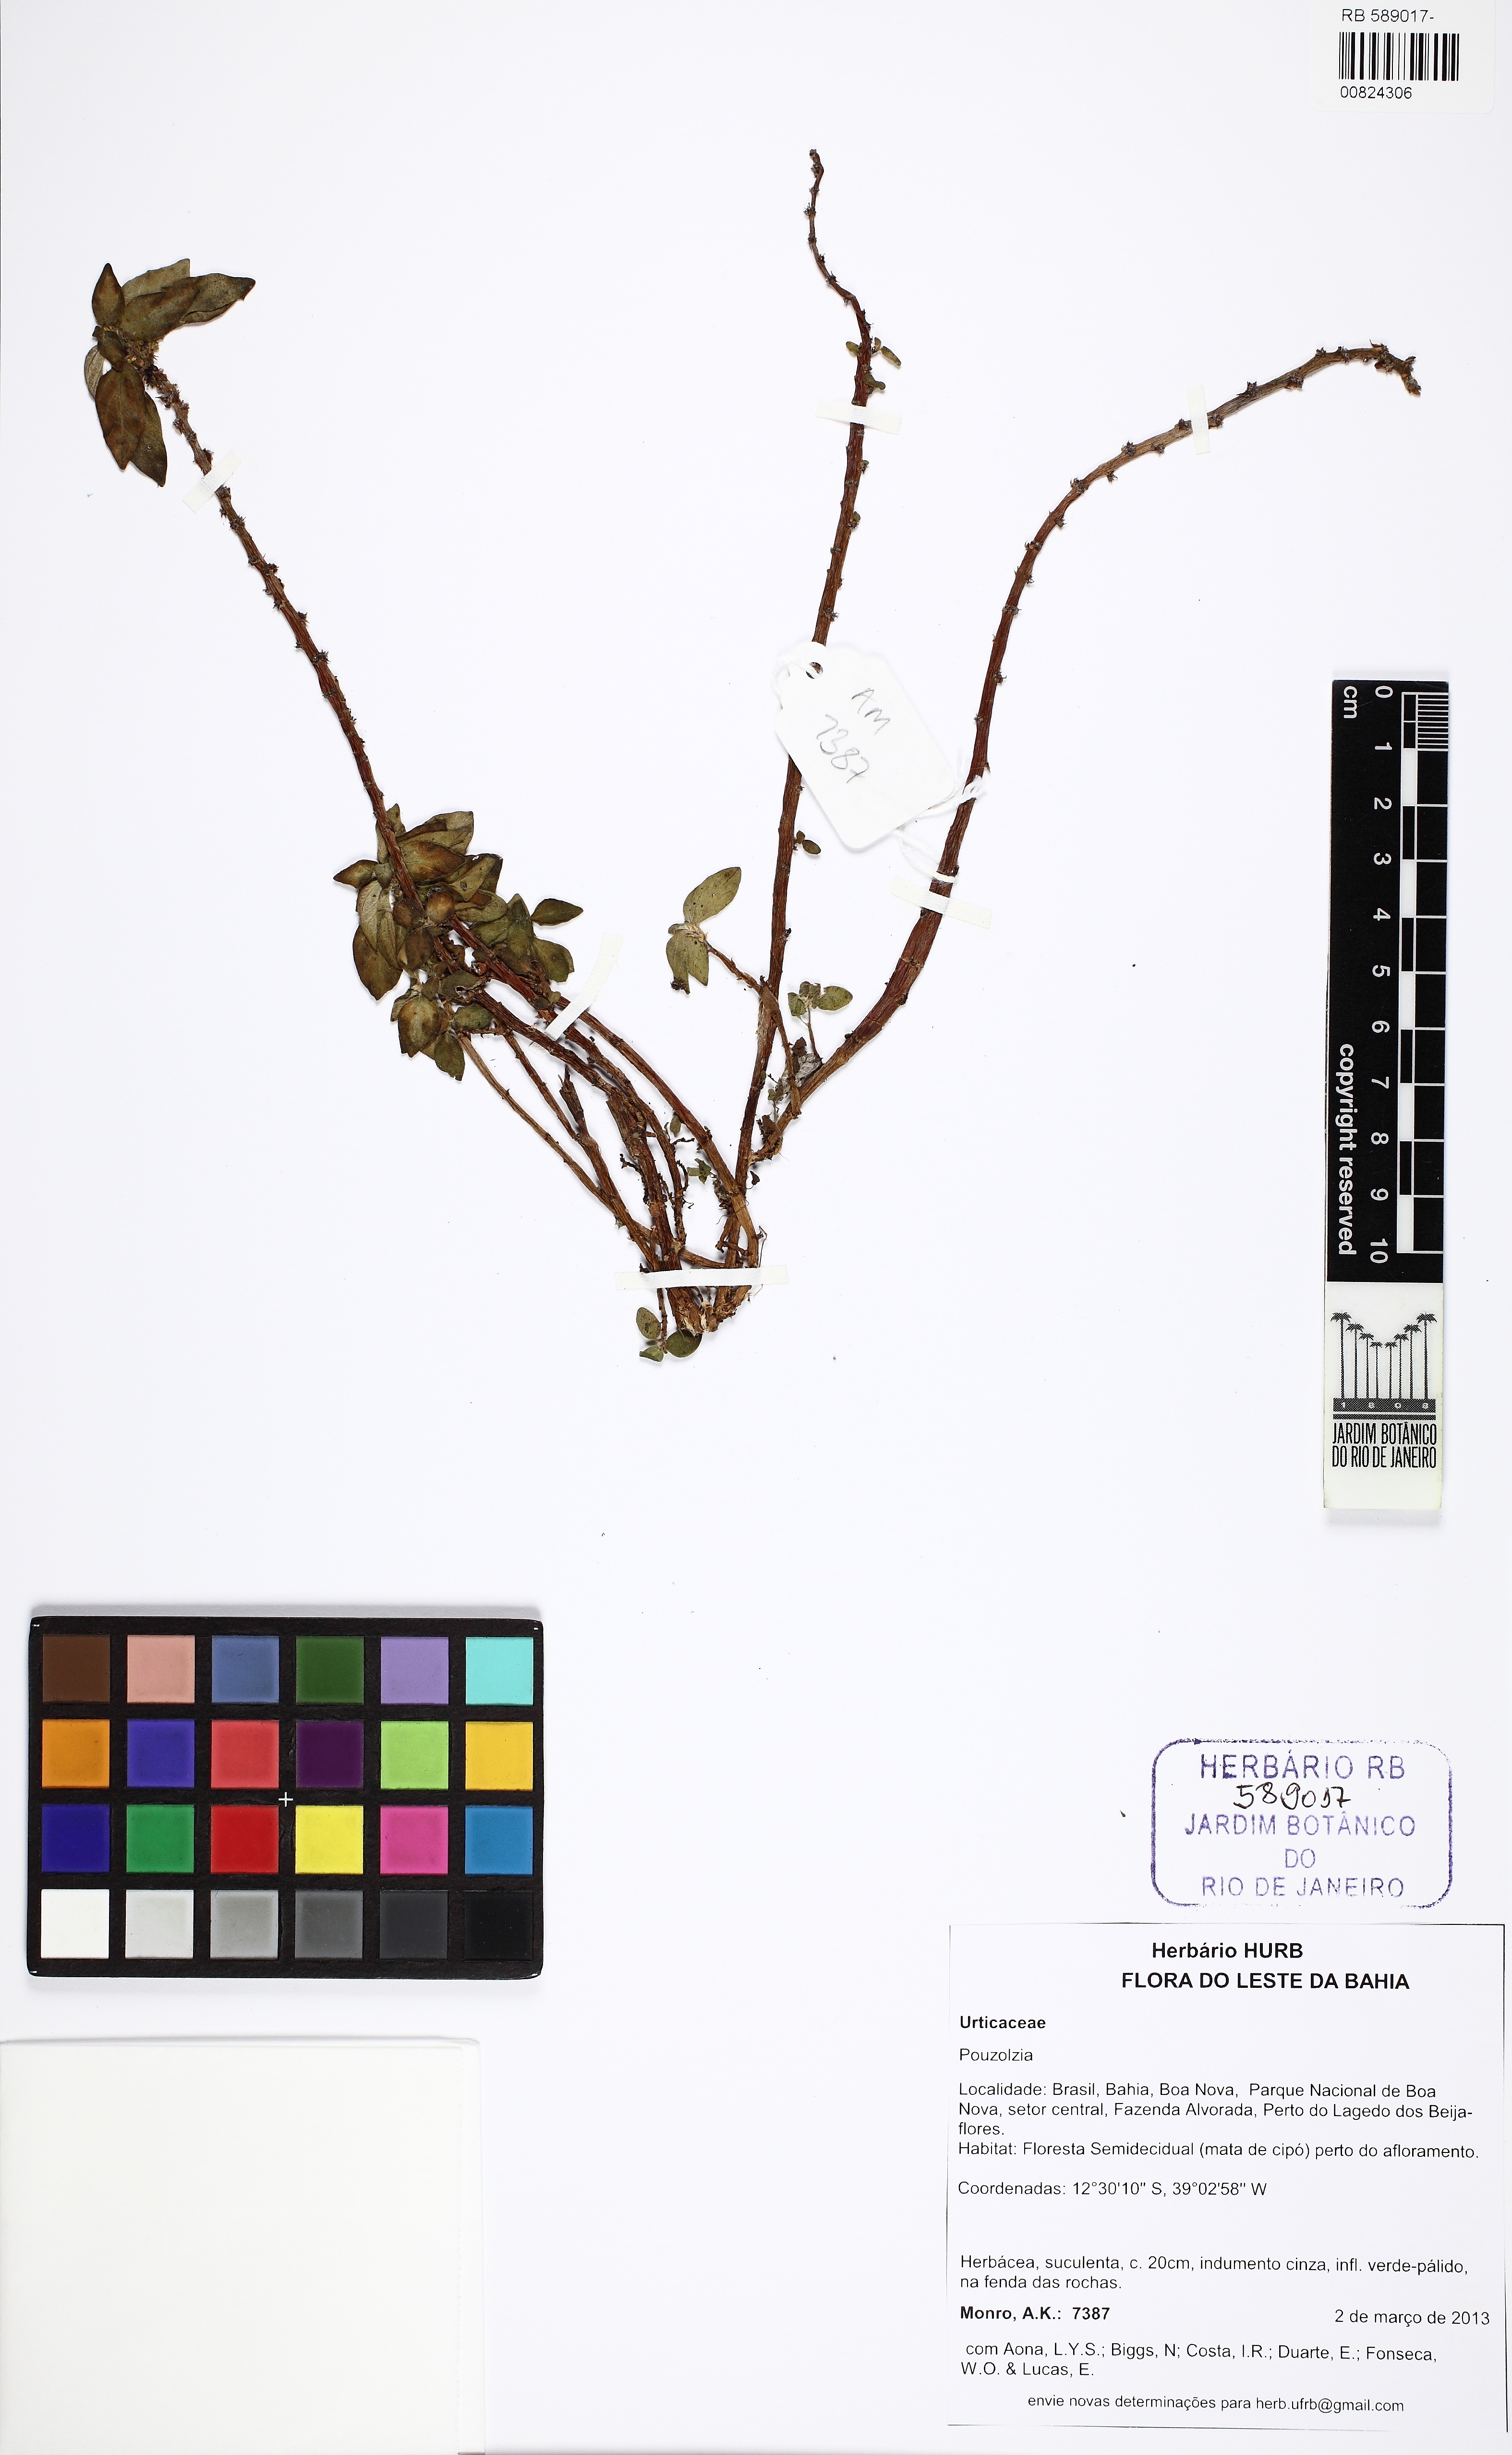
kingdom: Plantae
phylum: Tracheophyta
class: Magnoliopsida
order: Rosales
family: Urticaceae
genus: Pouzolzia
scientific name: Pouzolzia
